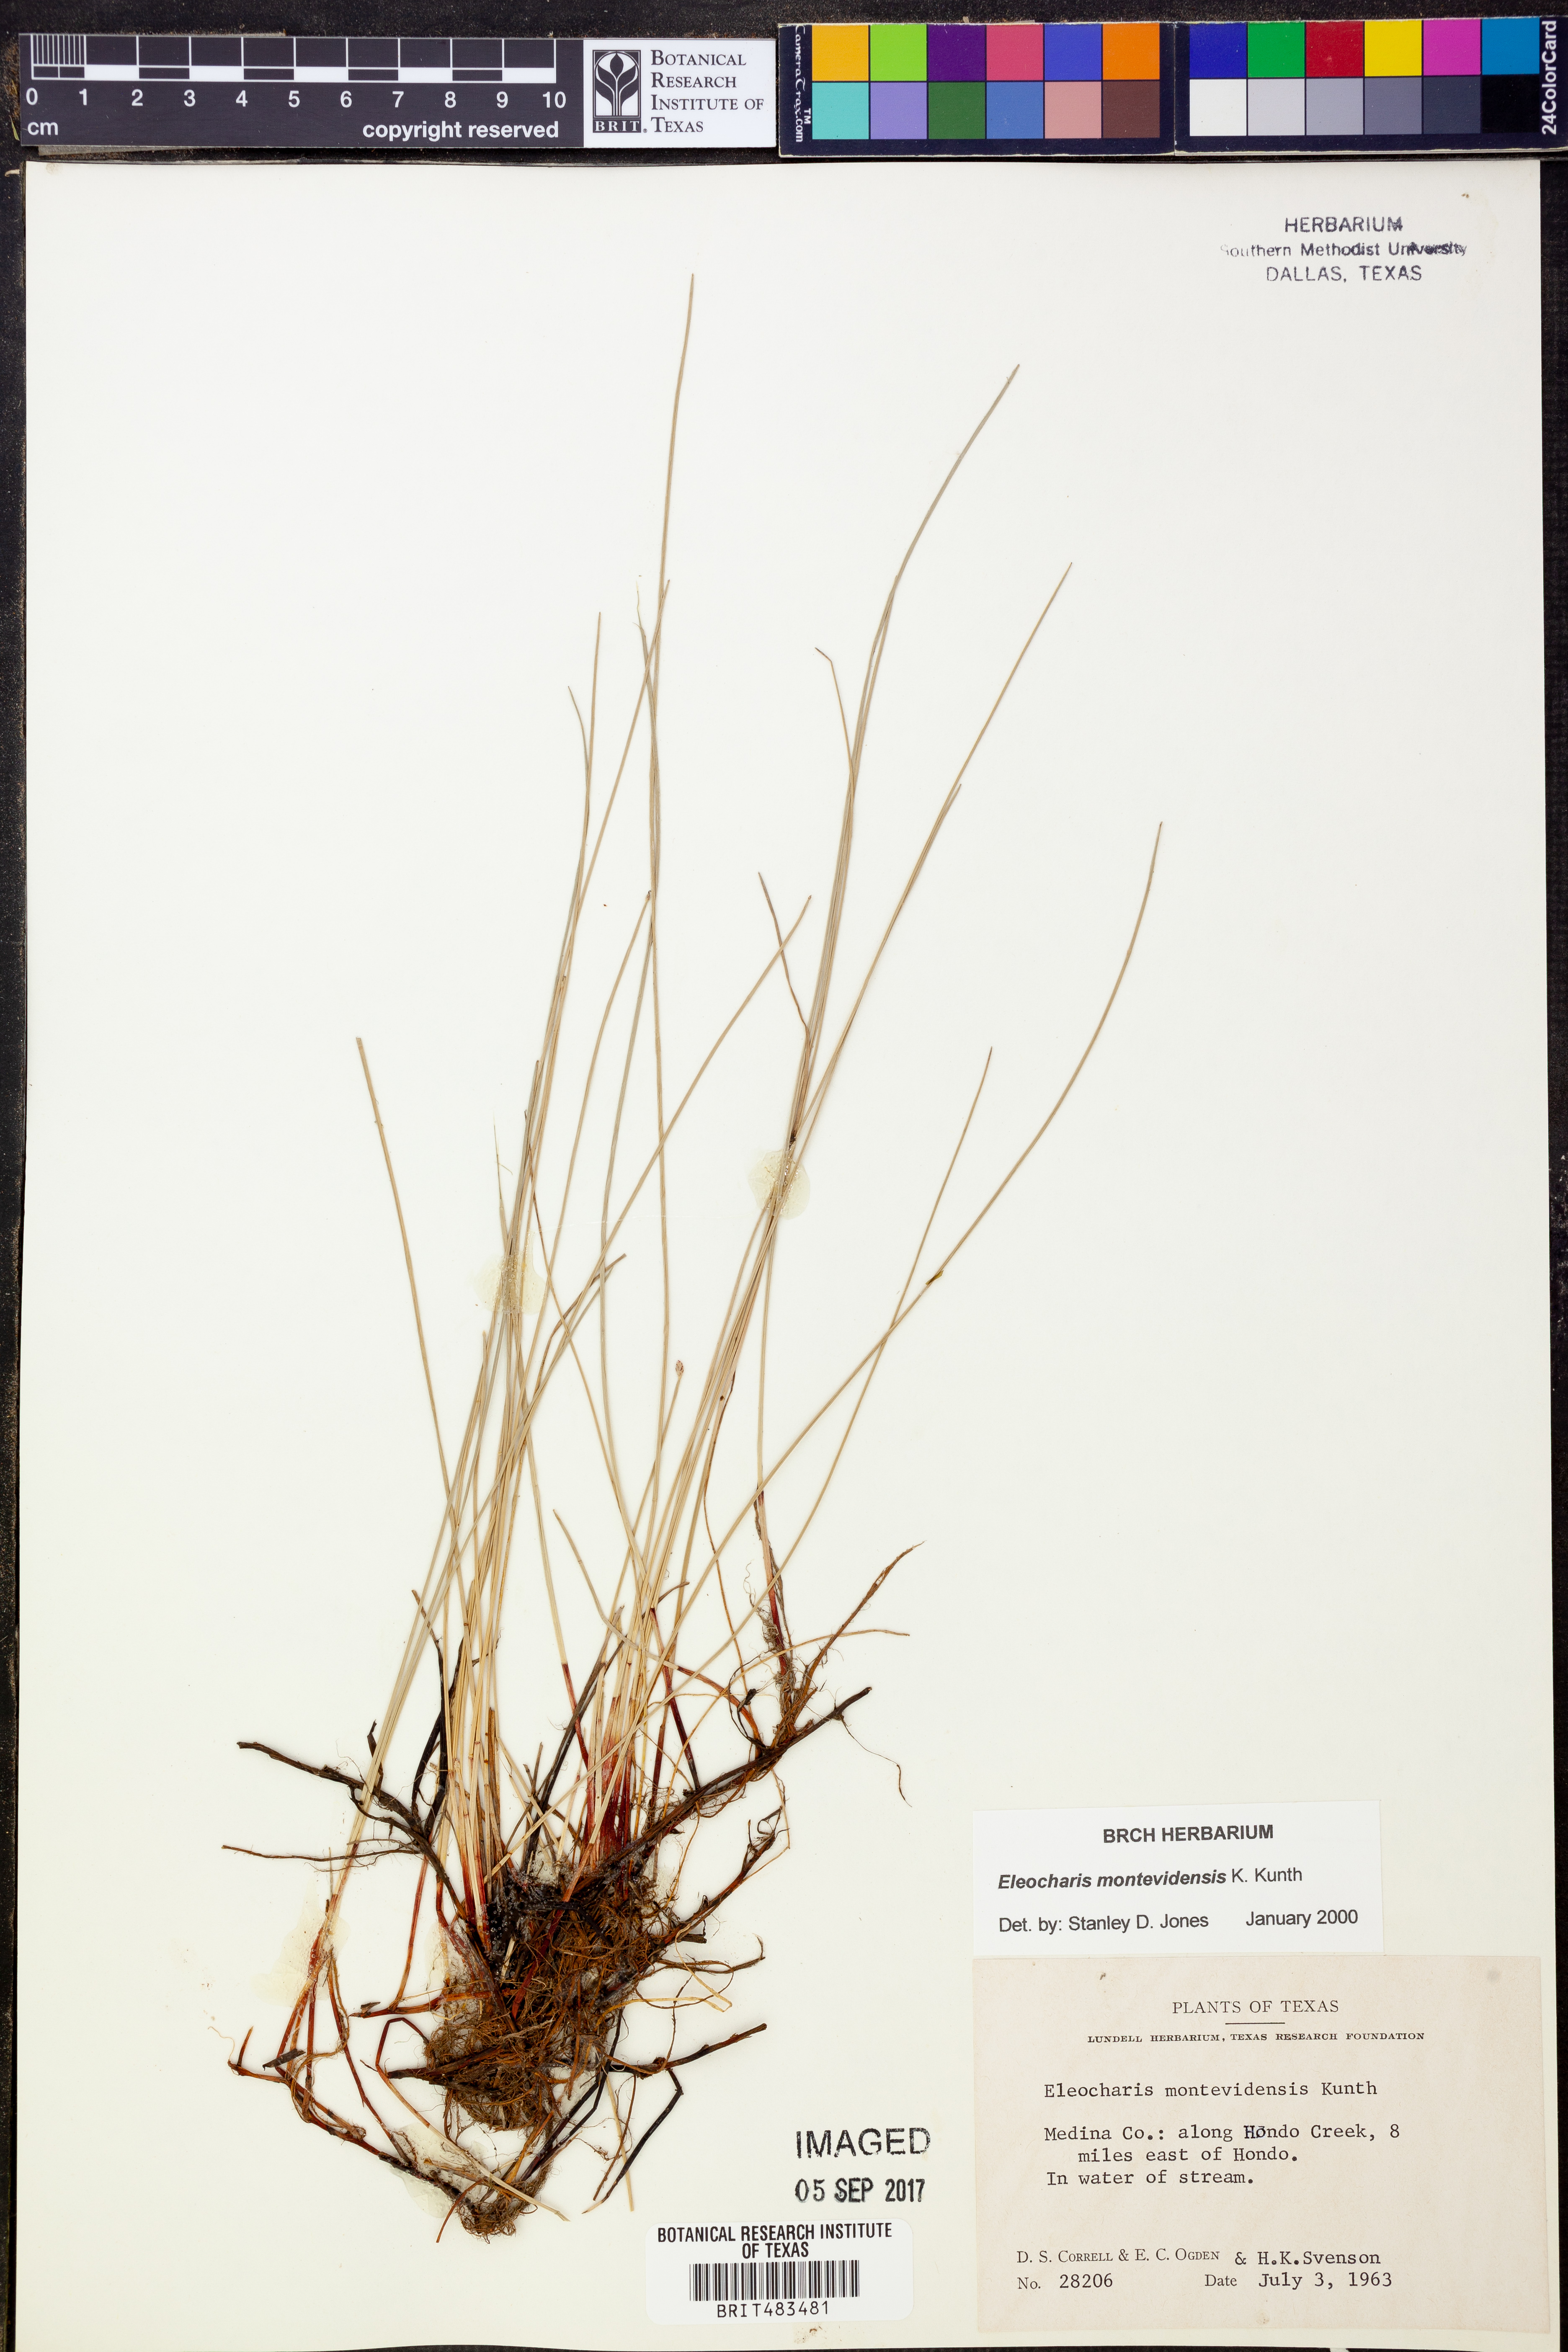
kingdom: Plantae
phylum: Tracheophyta
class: Liliopsida
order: Poales
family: Cyperaceae
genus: Eleocharis
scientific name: Eleocharis montevidensis
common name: Sand spike-rush
